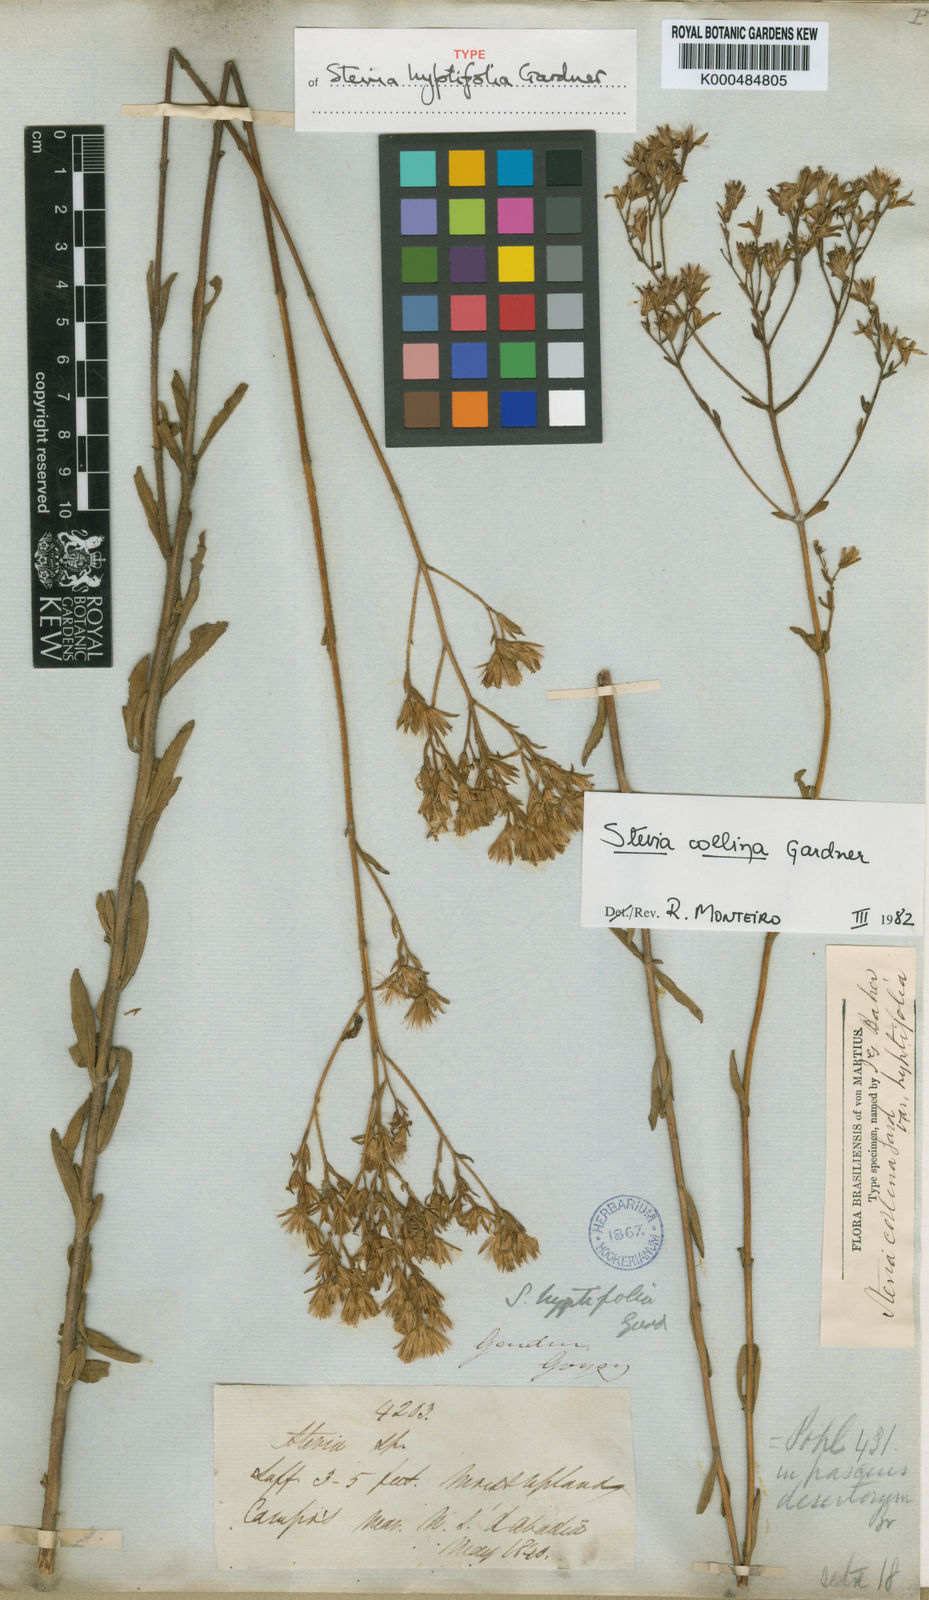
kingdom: Plantae
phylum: Tracheophyta
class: Magnoliopsida
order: Asterales
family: Asteraceae
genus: Stevia
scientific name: Stevia collina
